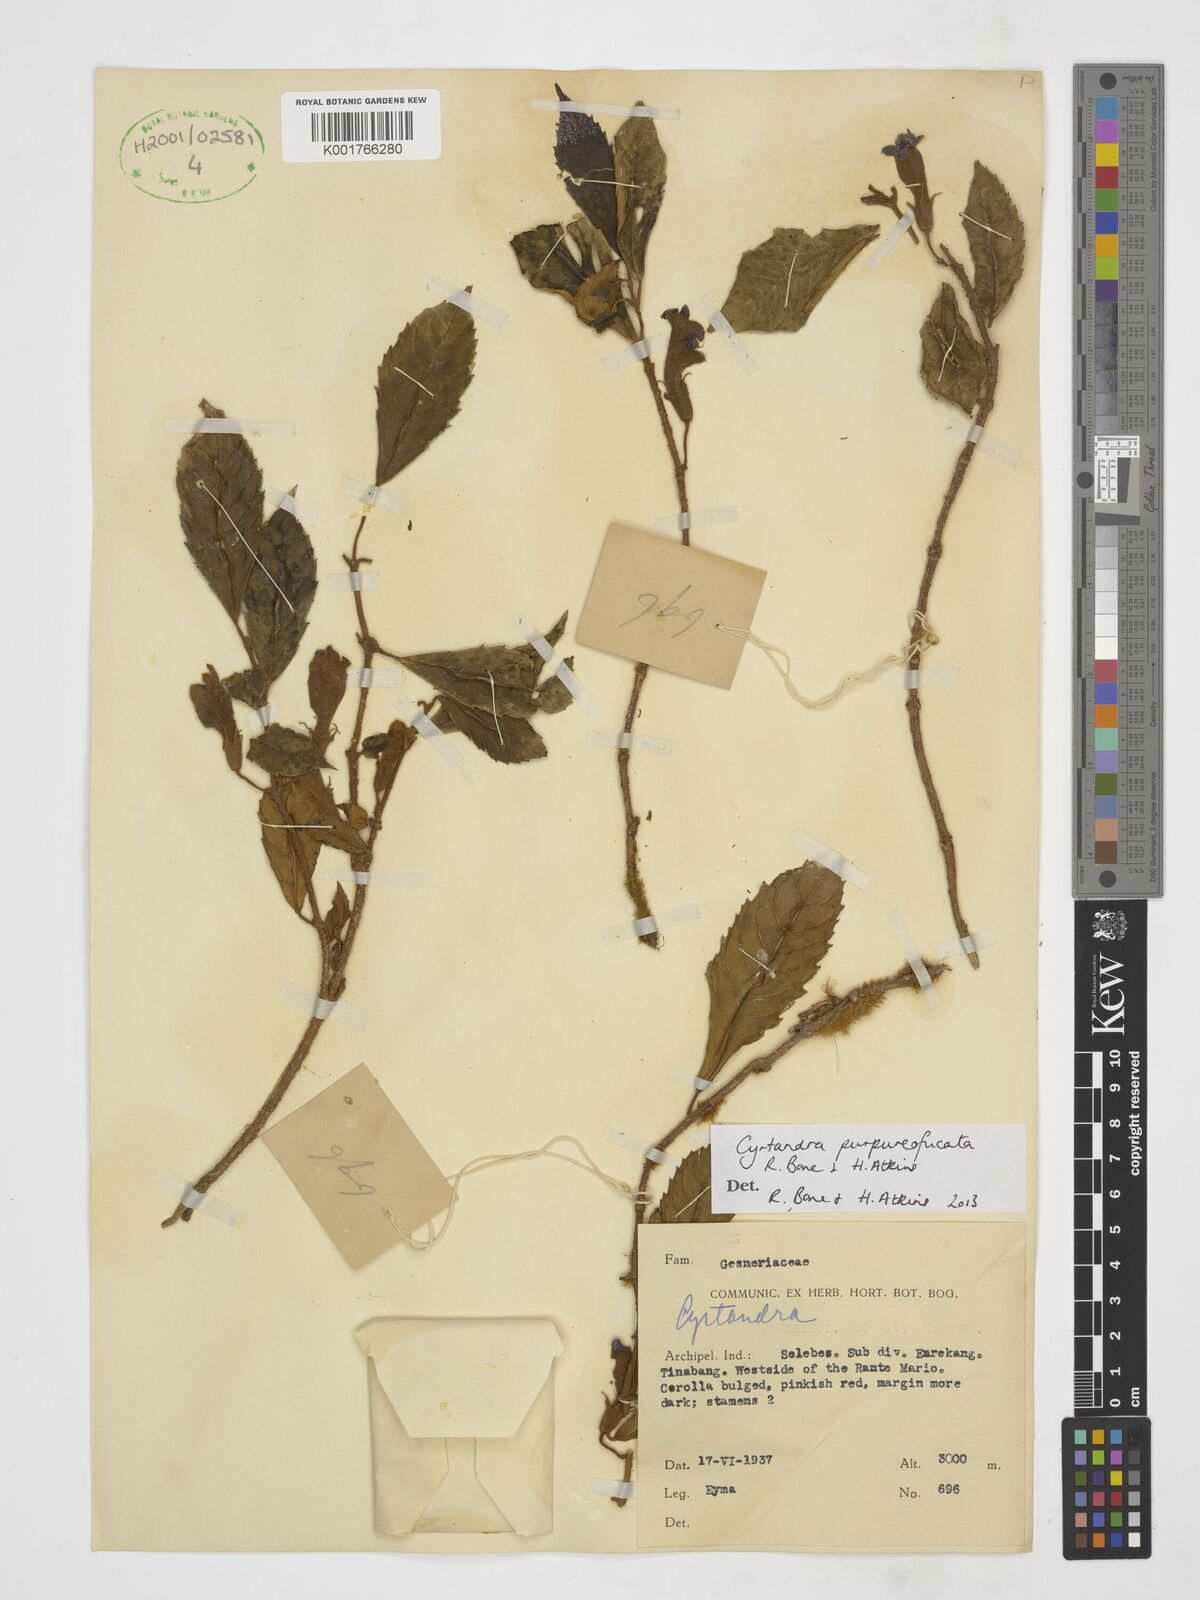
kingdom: Plantae
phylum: Tracheophyta
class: Magnoliopsida
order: Lamiales
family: Gesneriaceae
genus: Cyrtandra
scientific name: Cyrtandra purpureofucata
